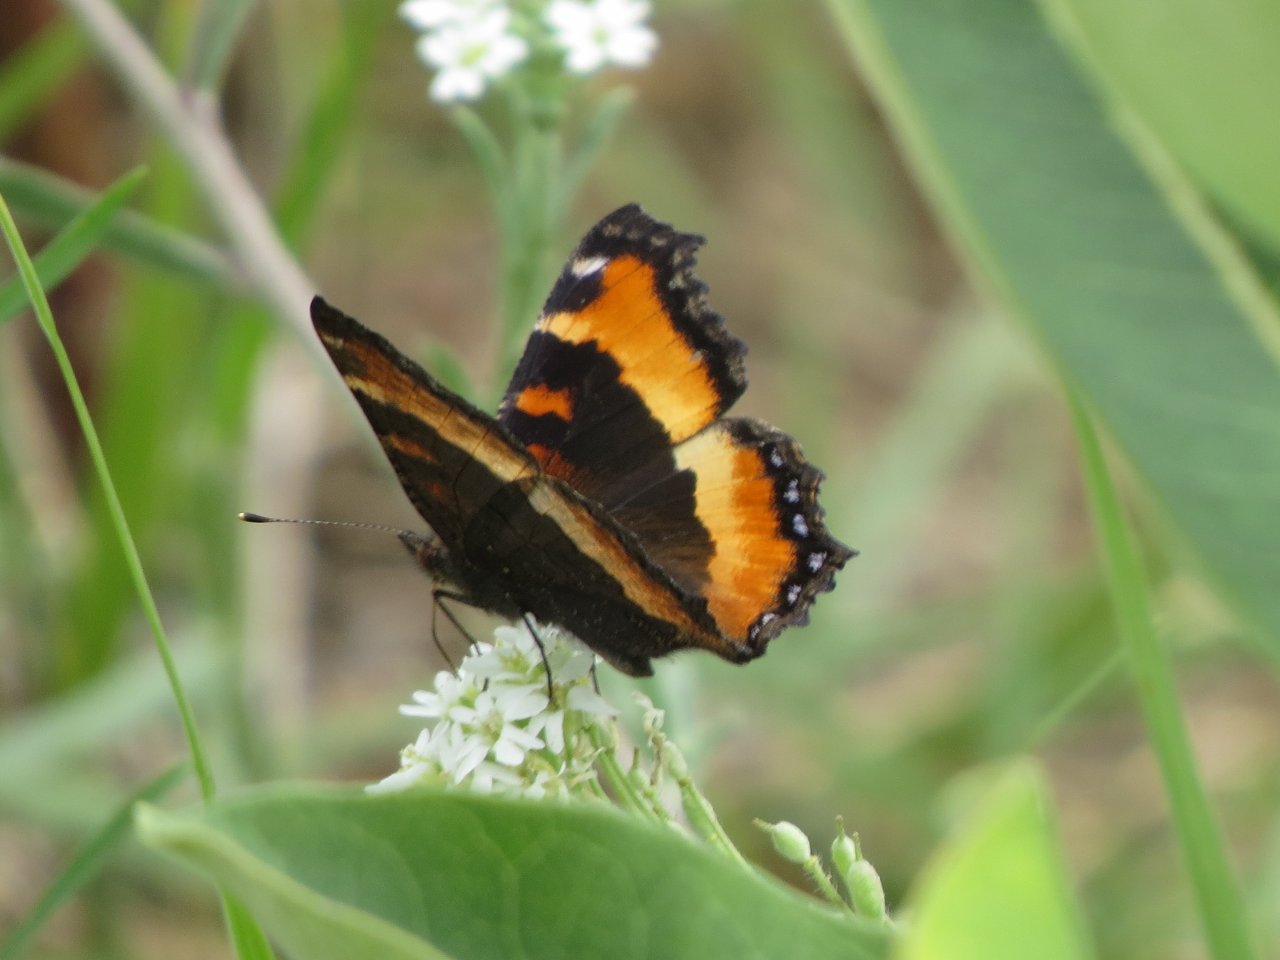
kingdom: Animalia
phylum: Arthropoda
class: Insecta
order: Lepidoptera
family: Nymphalidae
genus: Aglais
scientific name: Aglais milberti
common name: Milbert's Tortoiseshell
